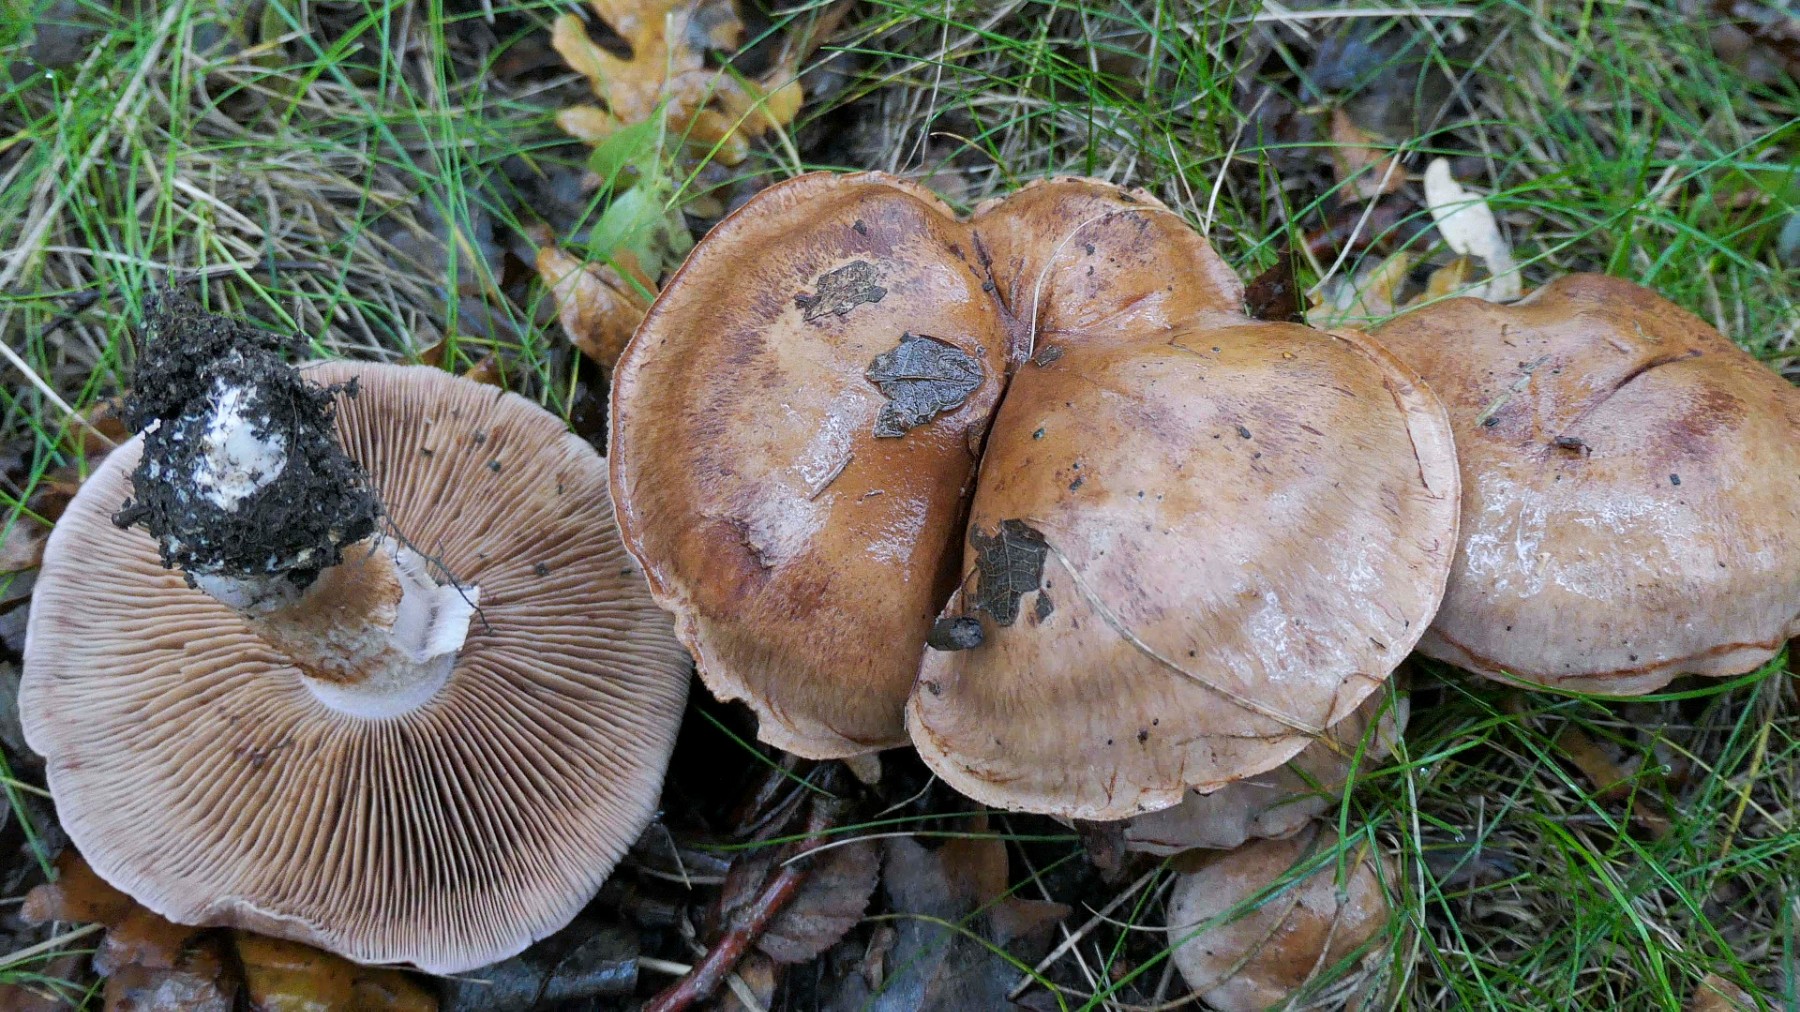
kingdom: Fungi
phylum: Basidiomycota
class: Agaricomycetes
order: Agaricales
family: Cortinariaceae
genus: Cortinarius
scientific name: Cortinarius largus
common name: violetrandet slørhat
